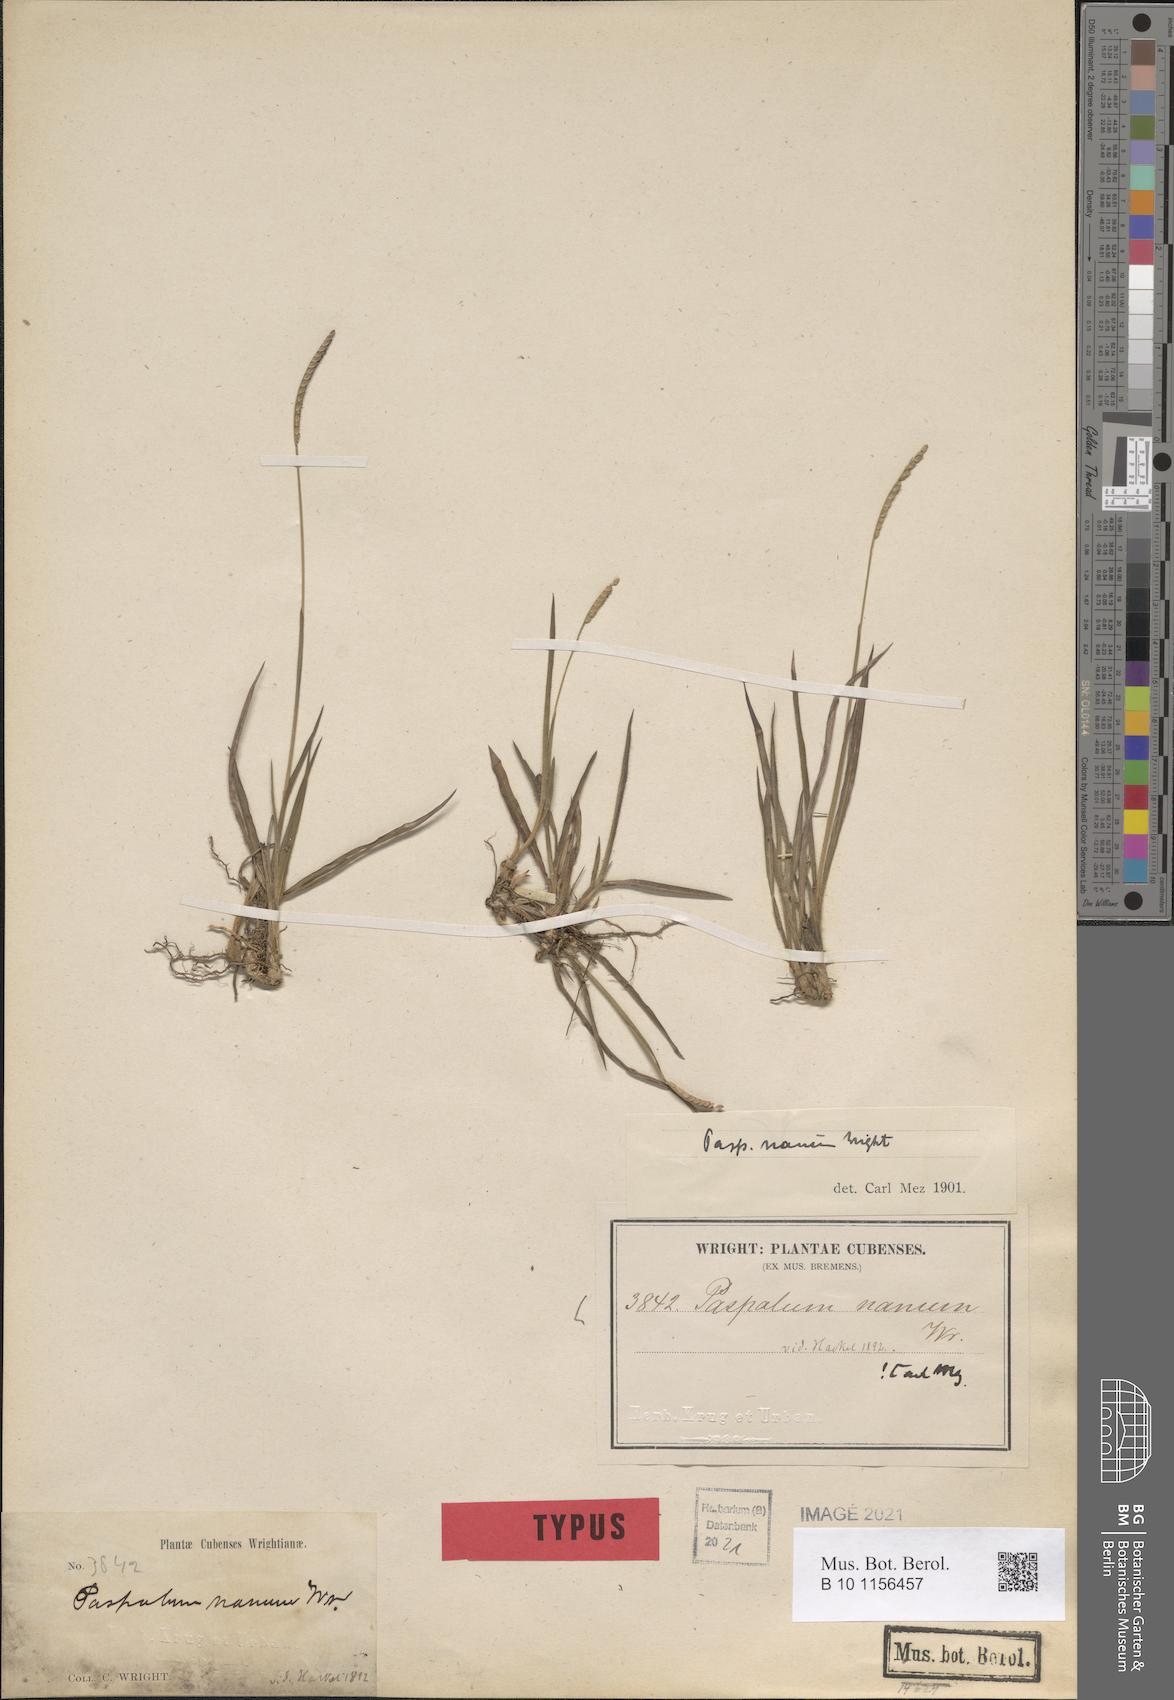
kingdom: Plantae
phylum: Tracheophyta
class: Liliopsida
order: Poales
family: Poaceae
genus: Paspalum
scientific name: Paspalum nanum
